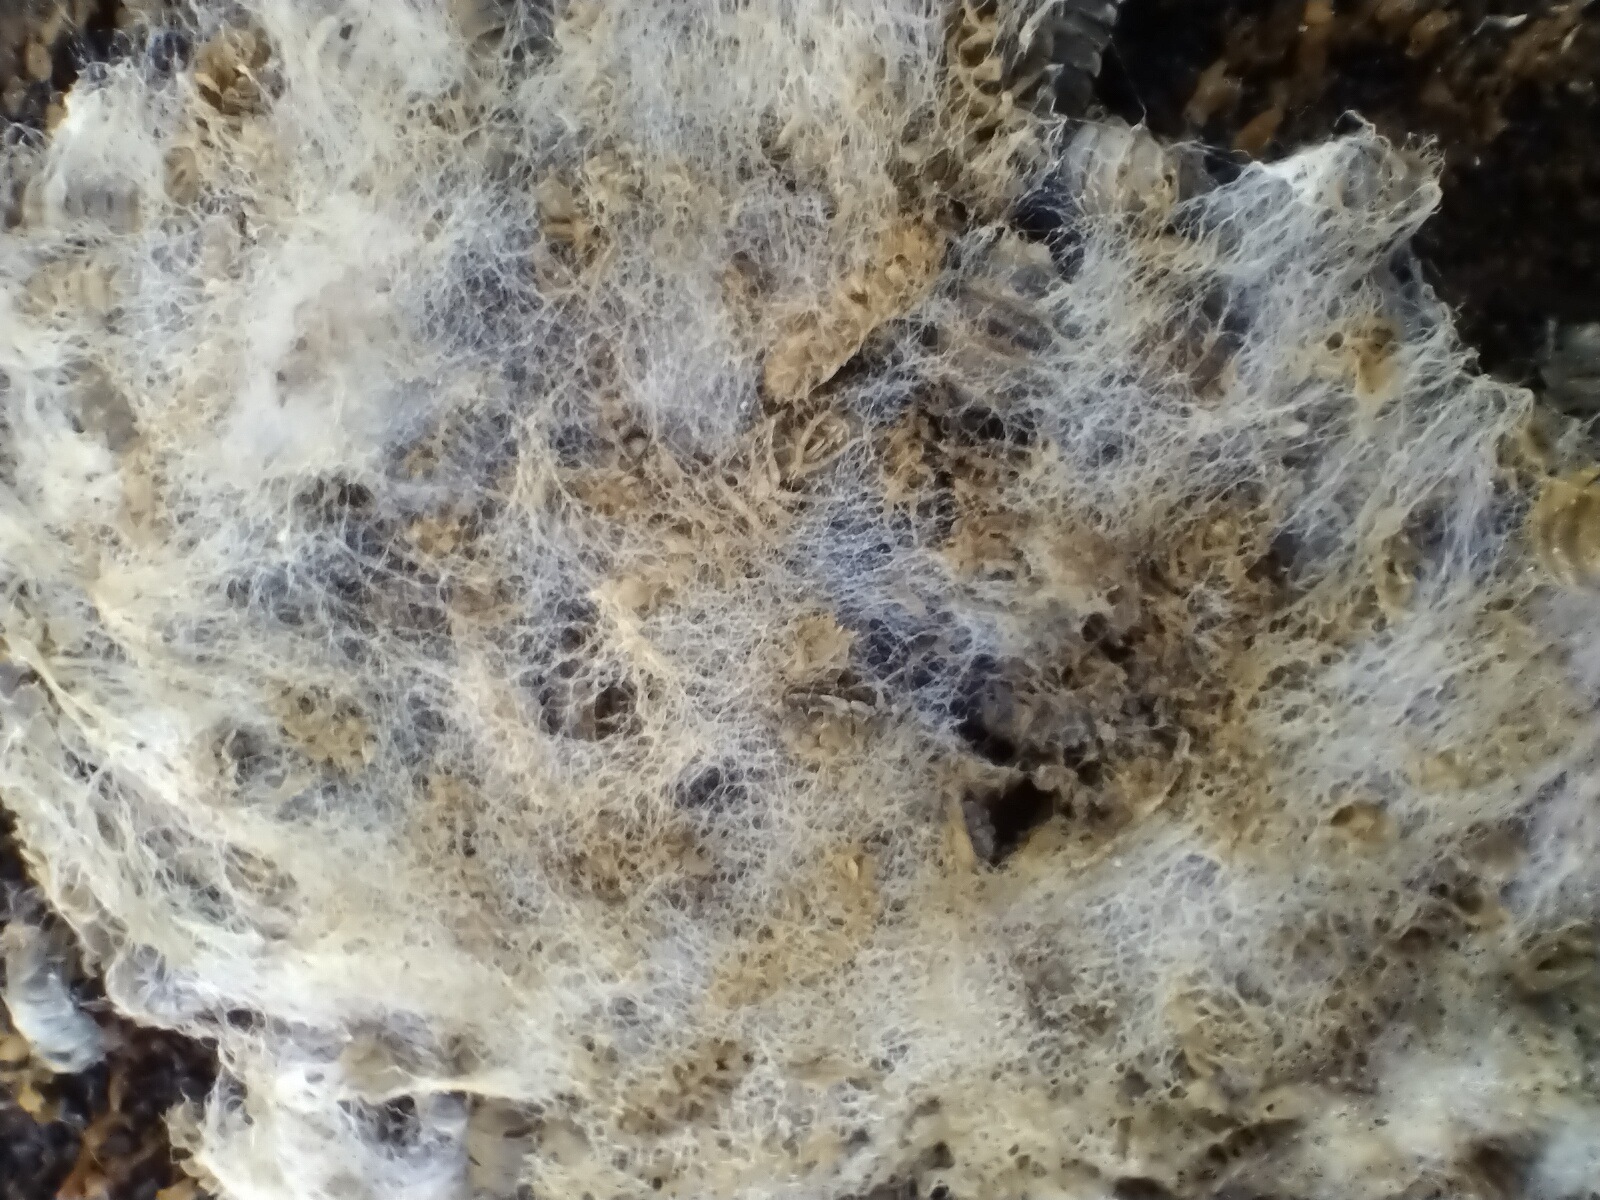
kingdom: Fungi
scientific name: Fungi
